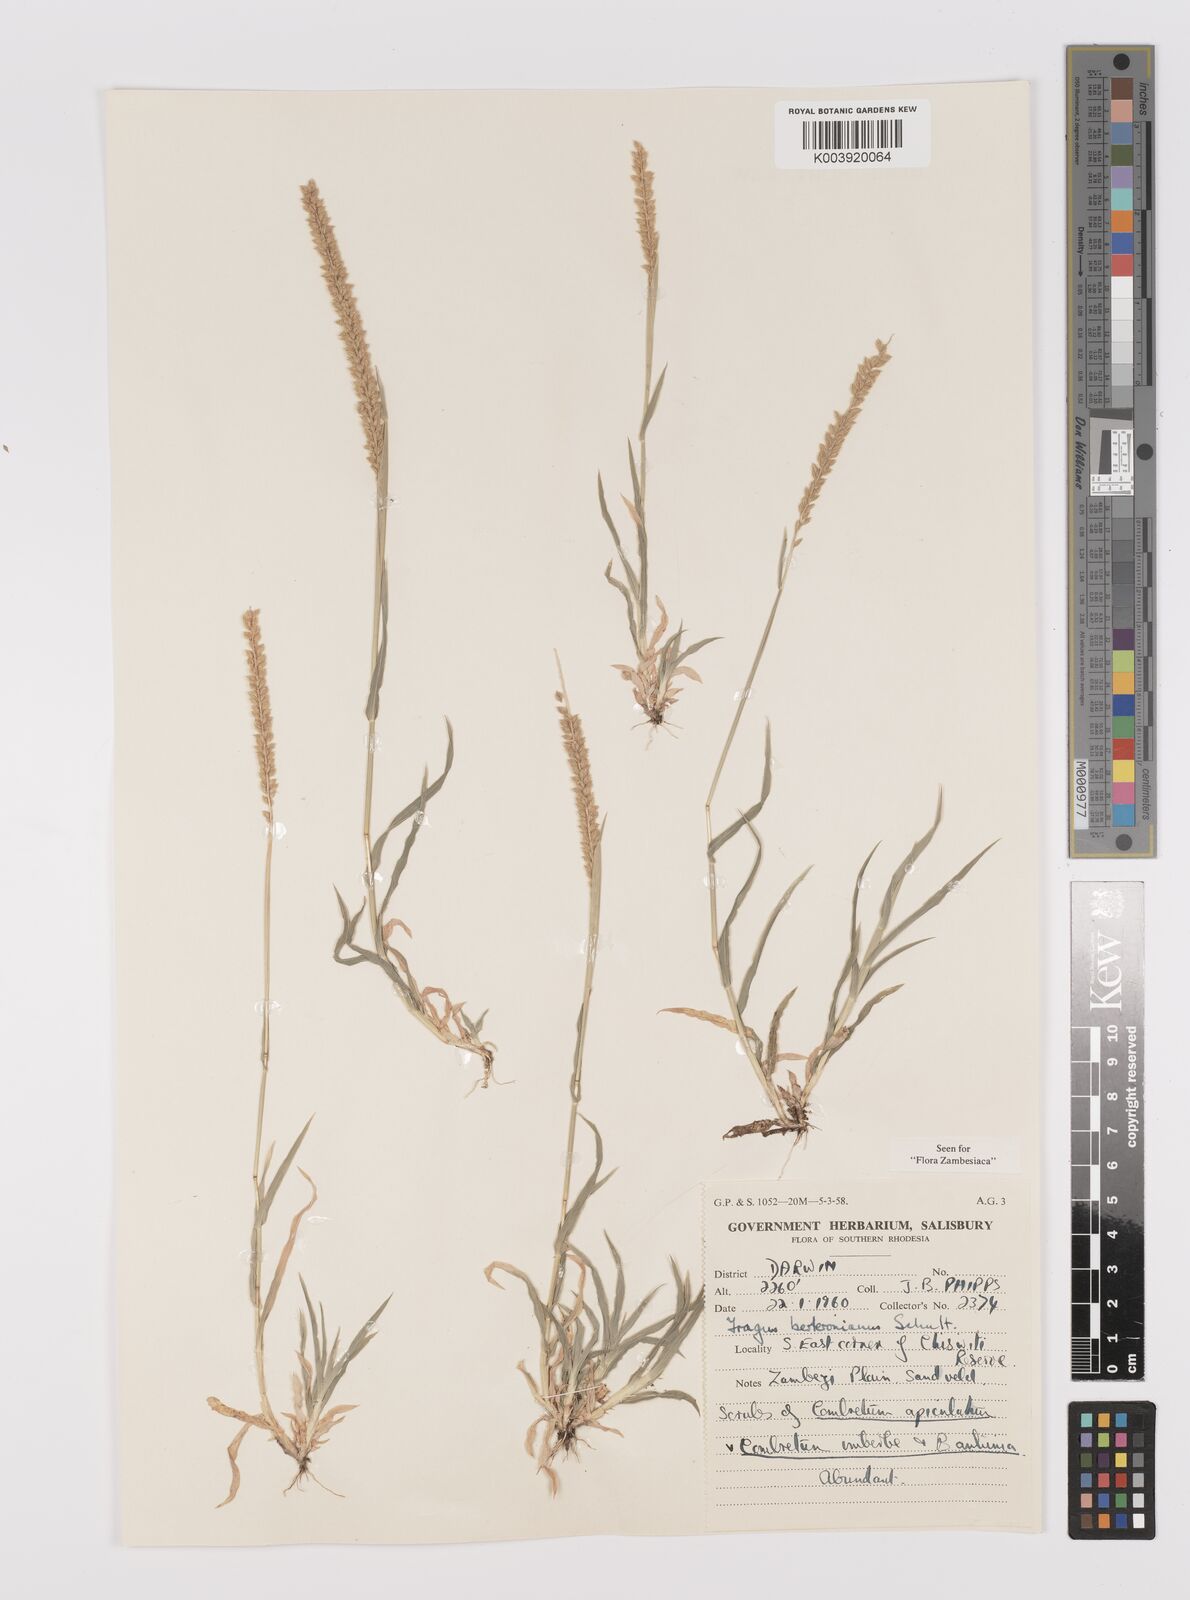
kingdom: Plantae
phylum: Tracheophyta
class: Liliopsida
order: Poales
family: Poaceae
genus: Tragus
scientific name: Tragus berteronianus
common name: African bur-grass
